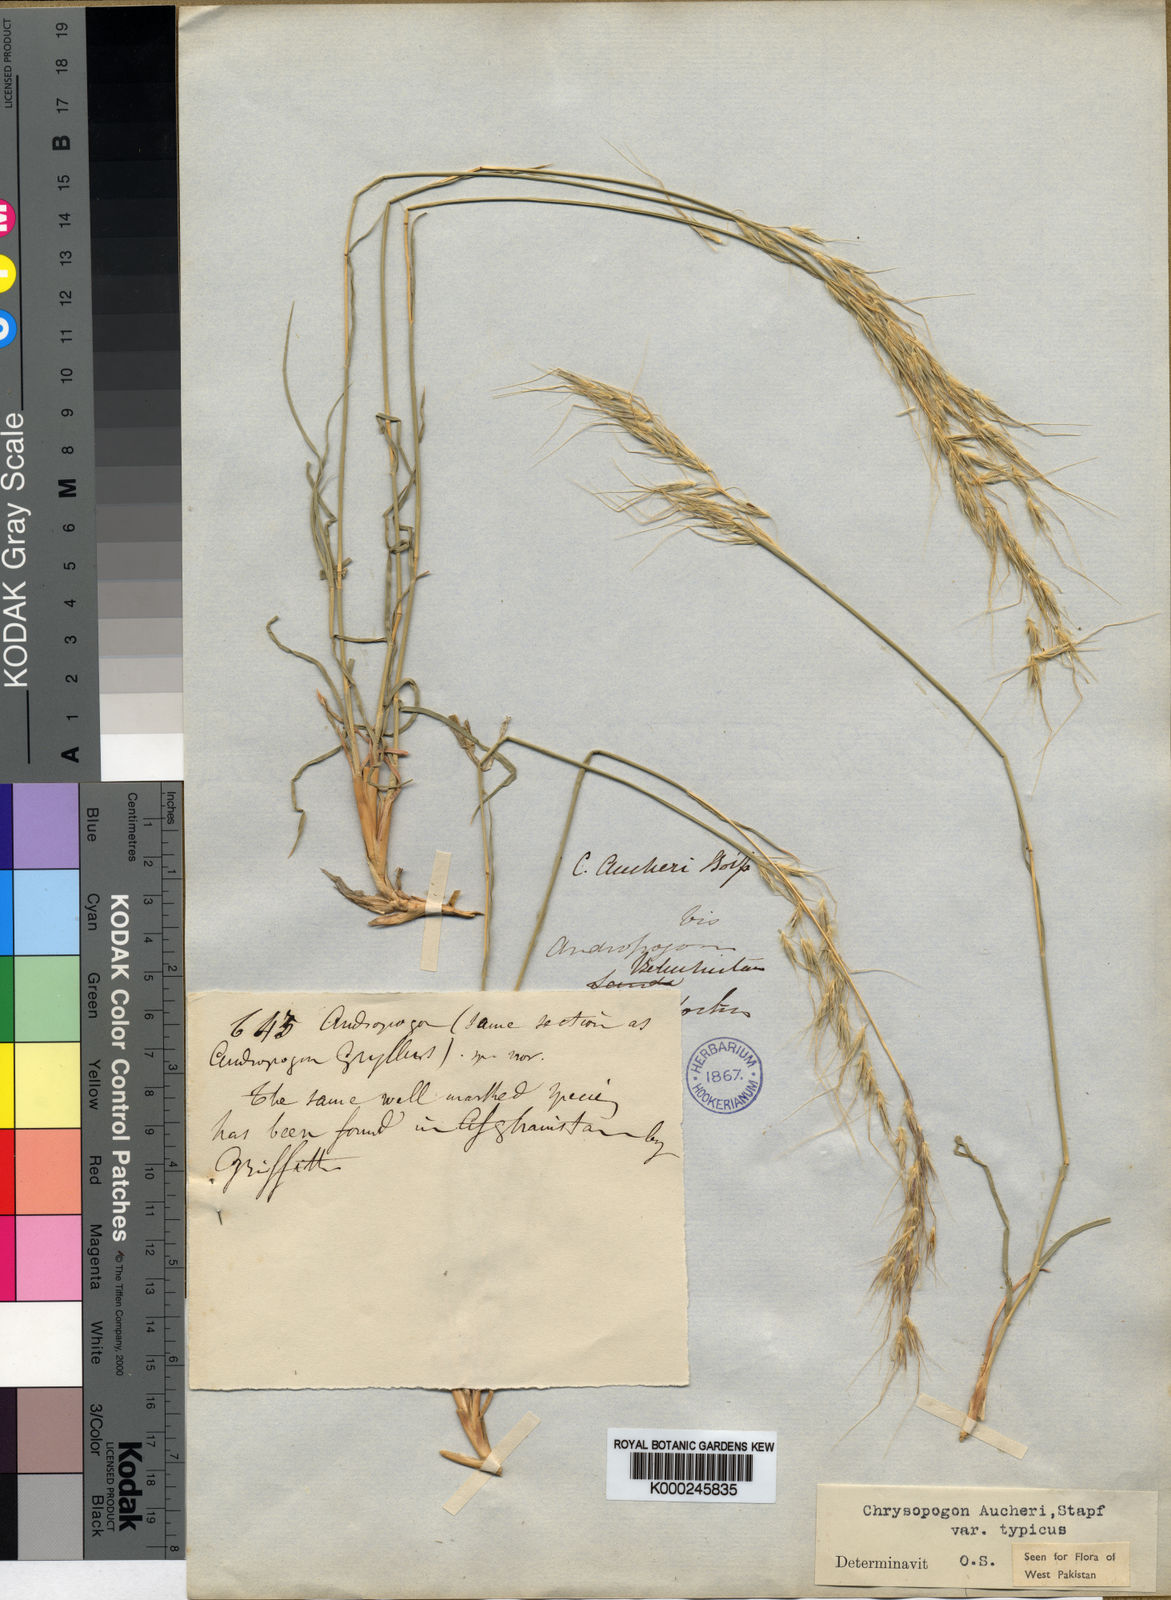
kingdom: Plantae
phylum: Tracheophyta
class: Liliopsida
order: Poales
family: Poaceae
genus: Chrysopogon
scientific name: Chrysopogon aucheri
